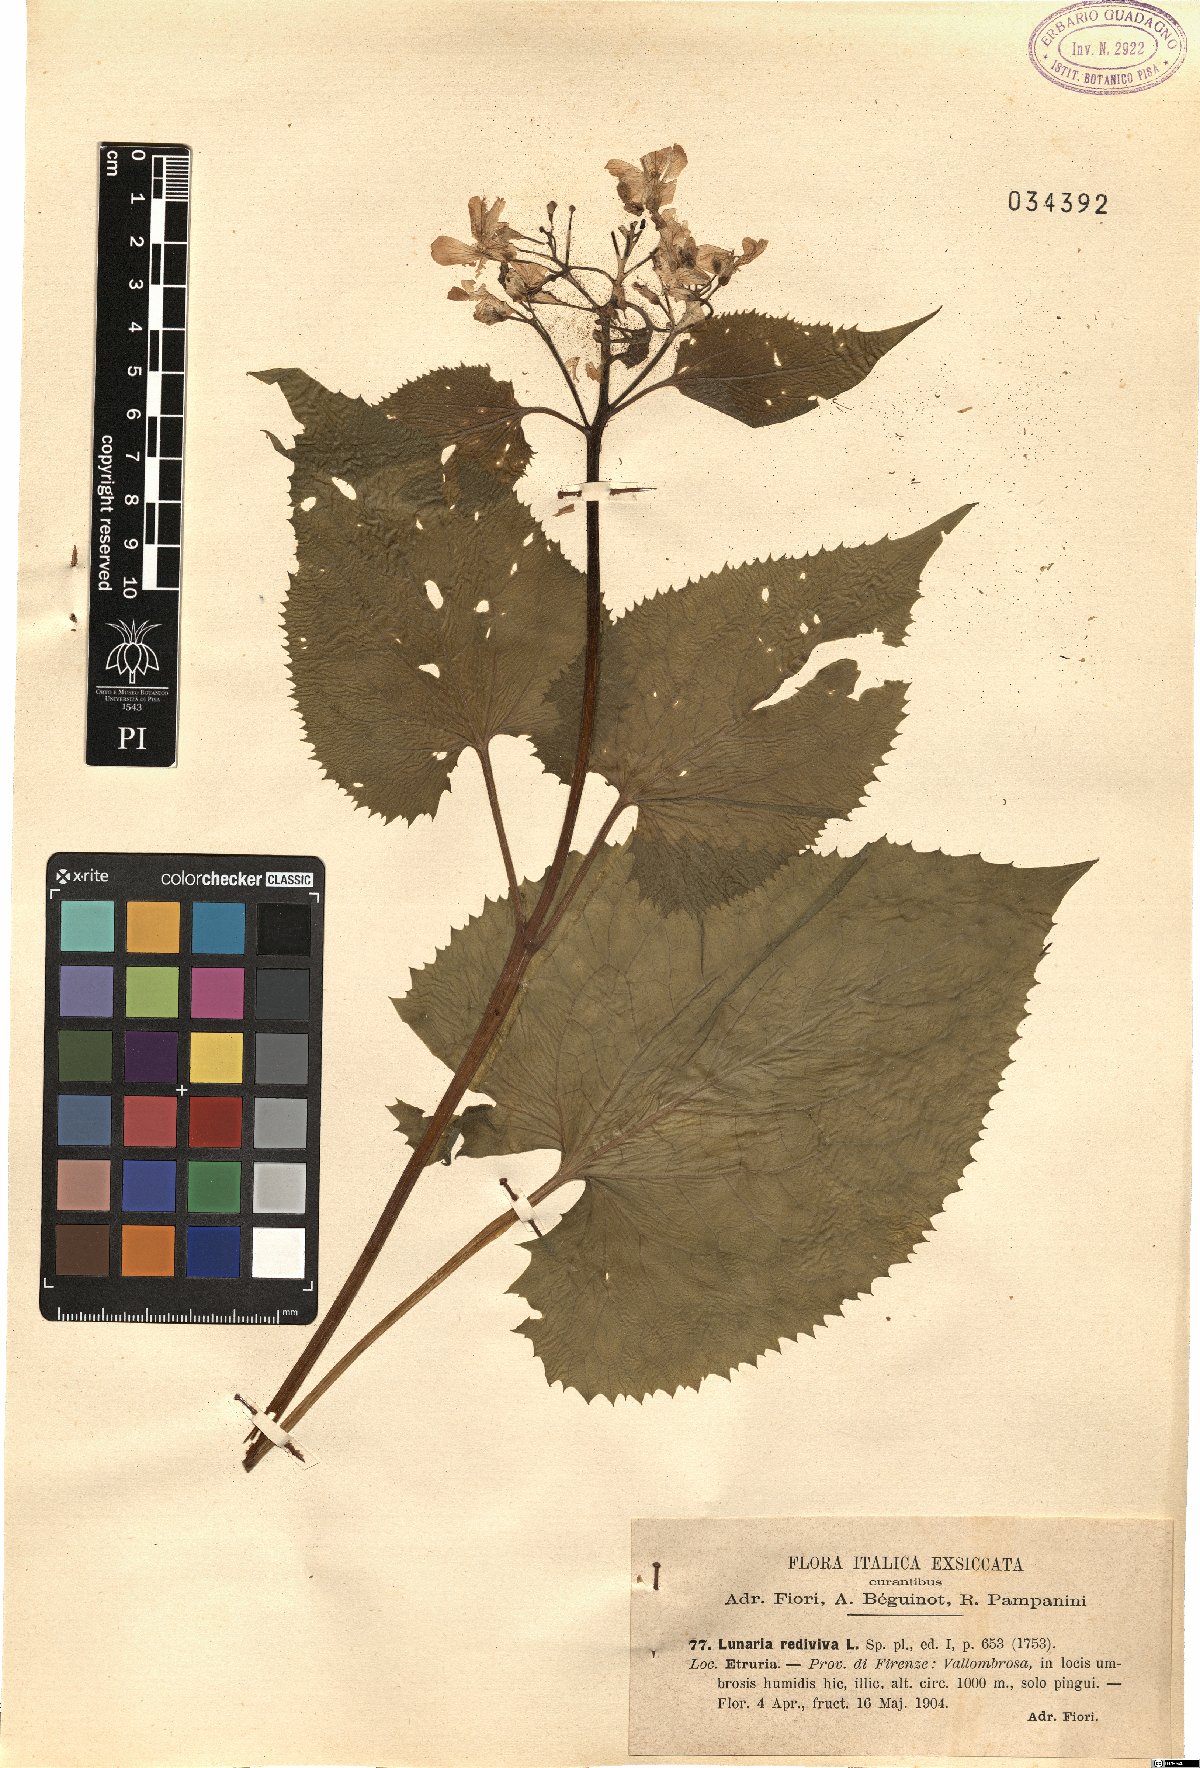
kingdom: Plantae
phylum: Tracheophyta
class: Magnoliopsida
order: Brassicales
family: Brassicaceae
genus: Lunaria
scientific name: Lunaria rediviva
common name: Perennial honesty
